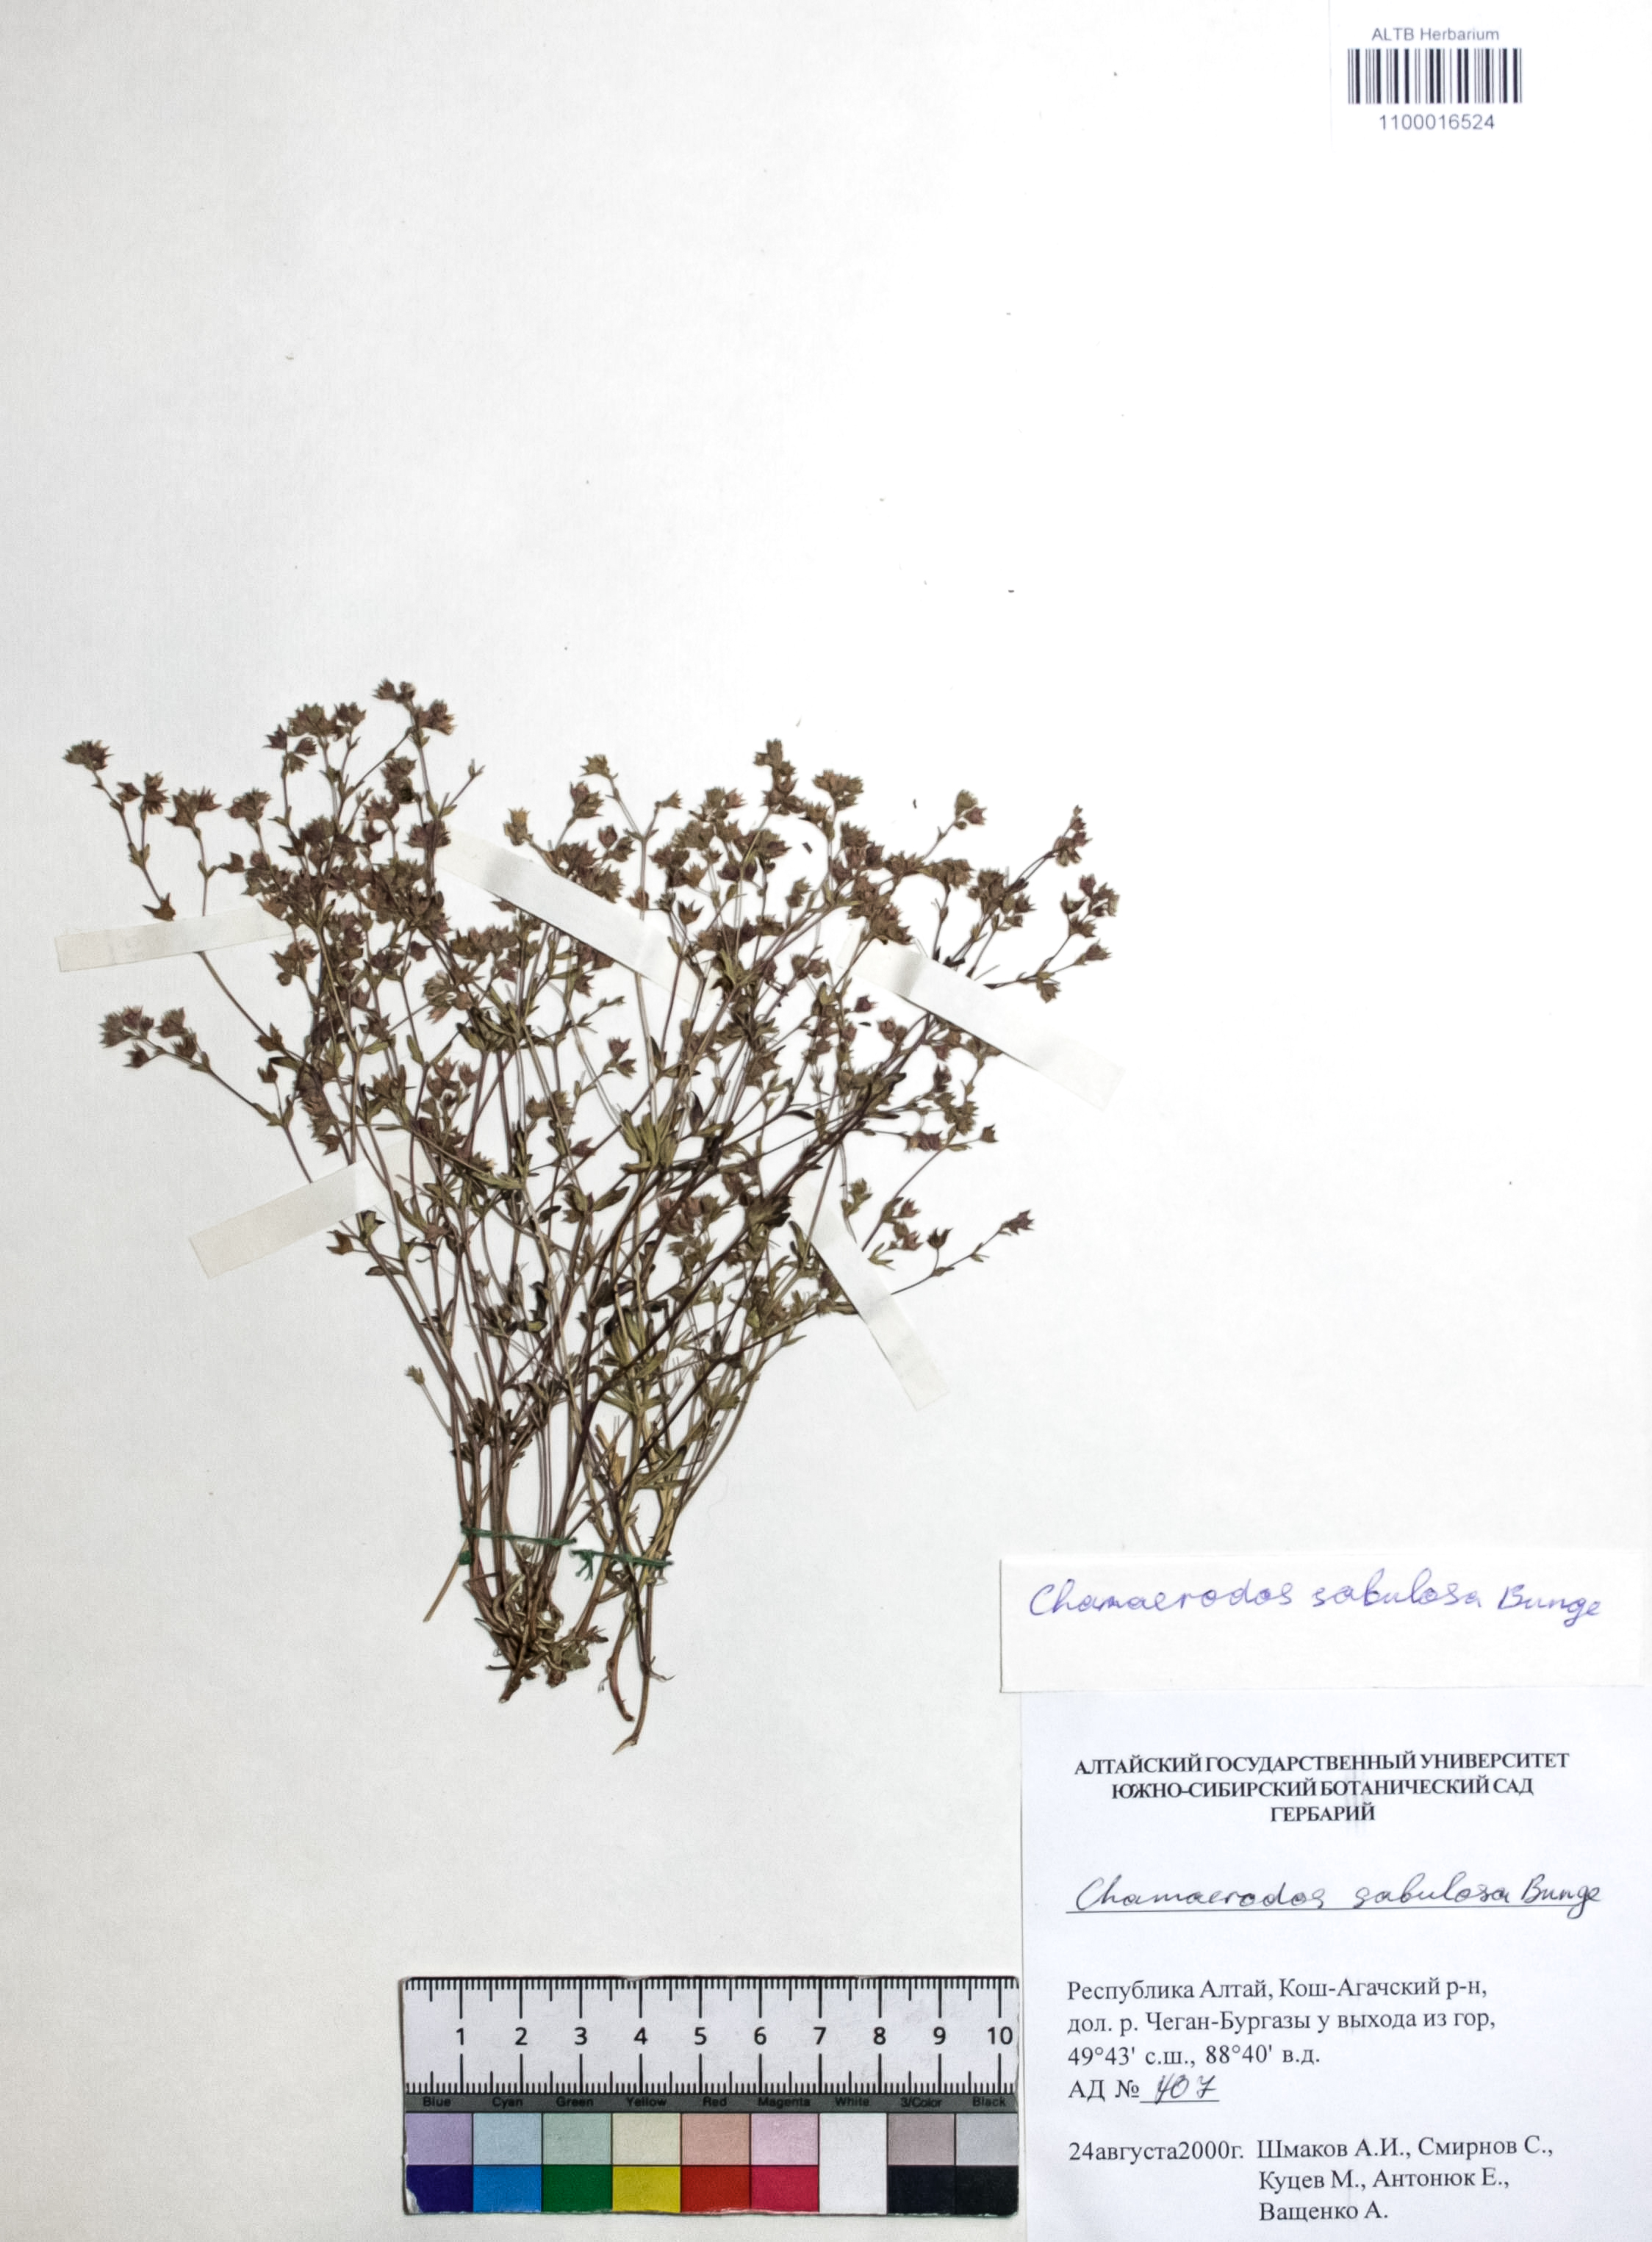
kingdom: Plantae
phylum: Tracheophyta
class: Magnoliopsida
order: Rosales
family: Rosaceae
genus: Chamaerhodos
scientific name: Chamaerhodos sabulosa
